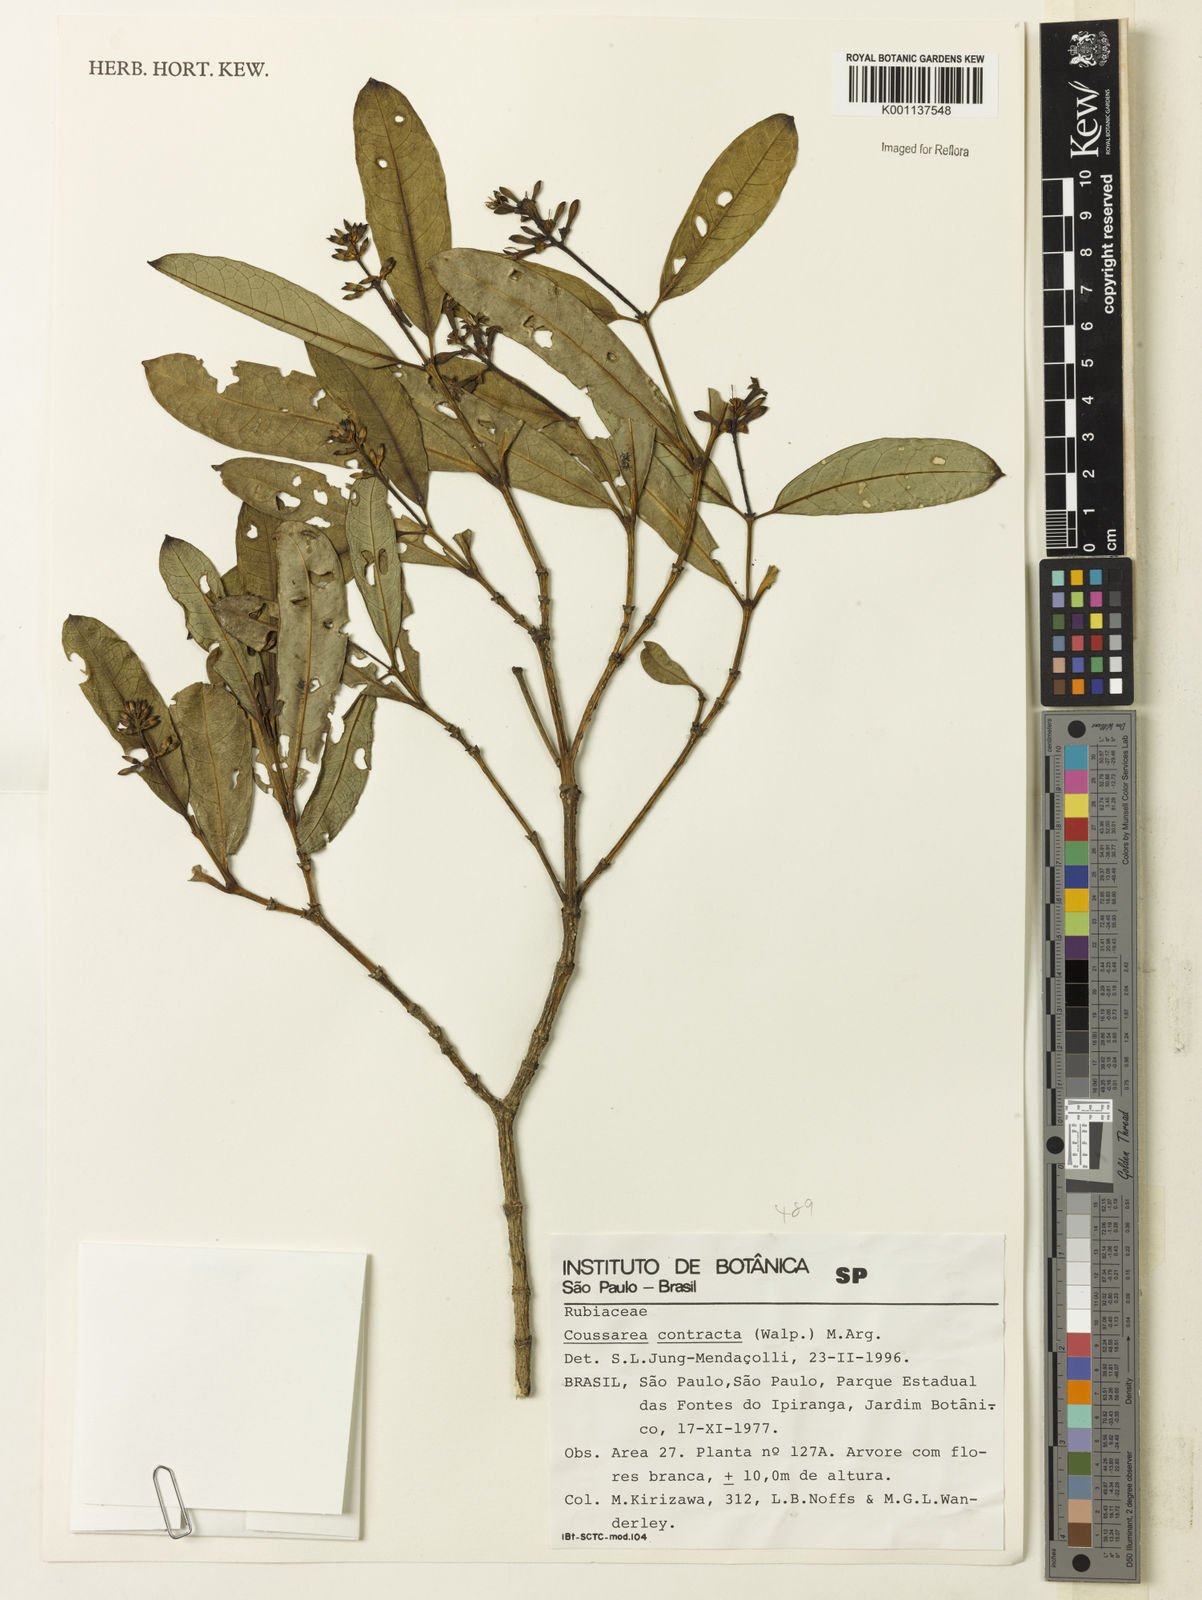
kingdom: Plantae
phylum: Tracheophyta
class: Magnoliopsida
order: Gentianales
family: Rubiaceae
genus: Coussarea
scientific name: Coussarea
